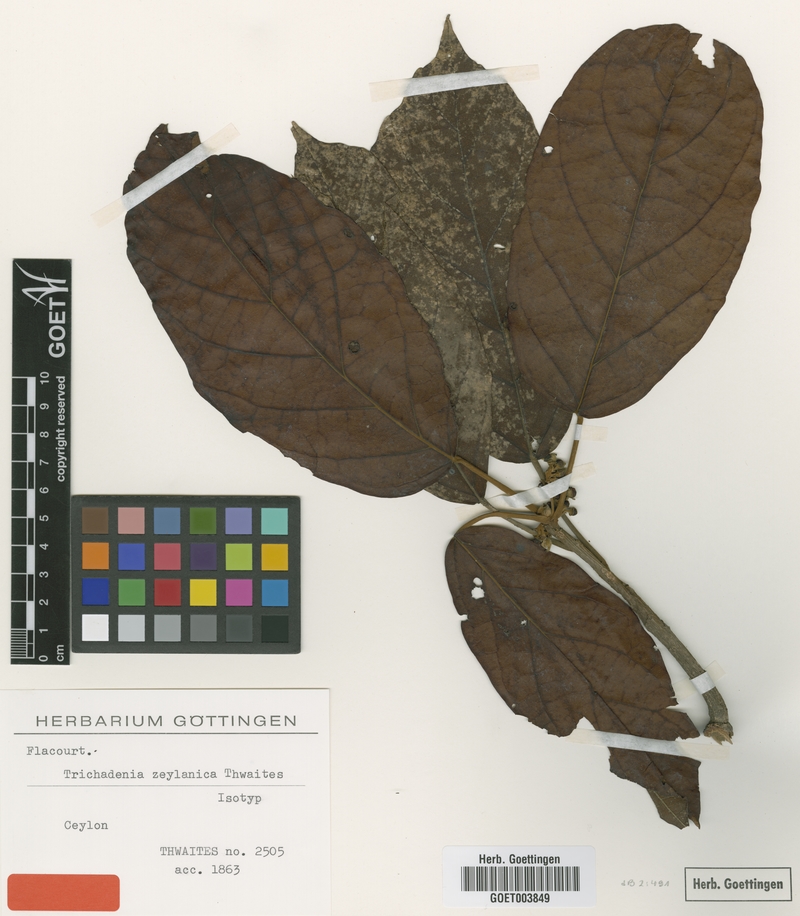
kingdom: Plantae
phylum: Tracheophyta
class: Magnoliopsida
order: Malpighiales
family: Achariaceae
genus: Trichadenia
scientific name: Trichadenia zeylanica
